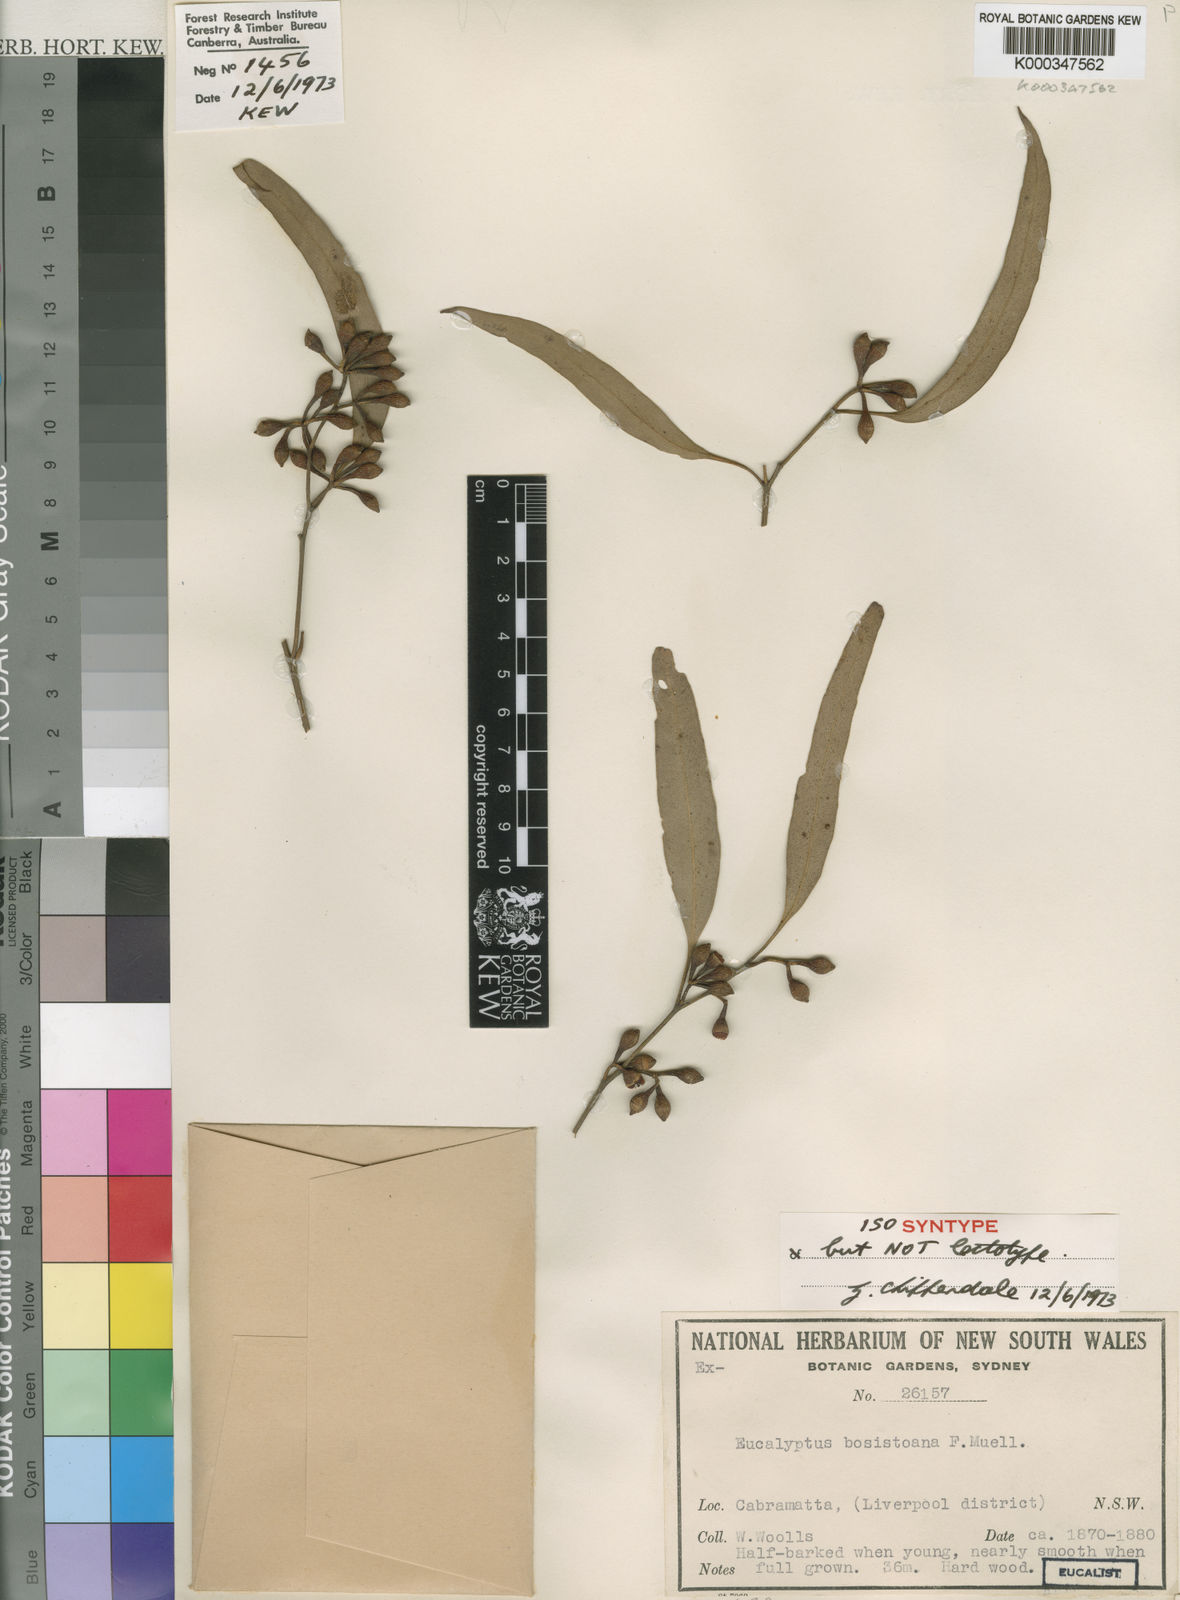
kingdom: Plantae
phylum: Tracheophyta
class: Magnoliopsida
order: Myrtales
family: Myrtaceae
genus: Eucalyptus
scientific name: Eucalyptus bosistoana
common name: Bosisto's-box
